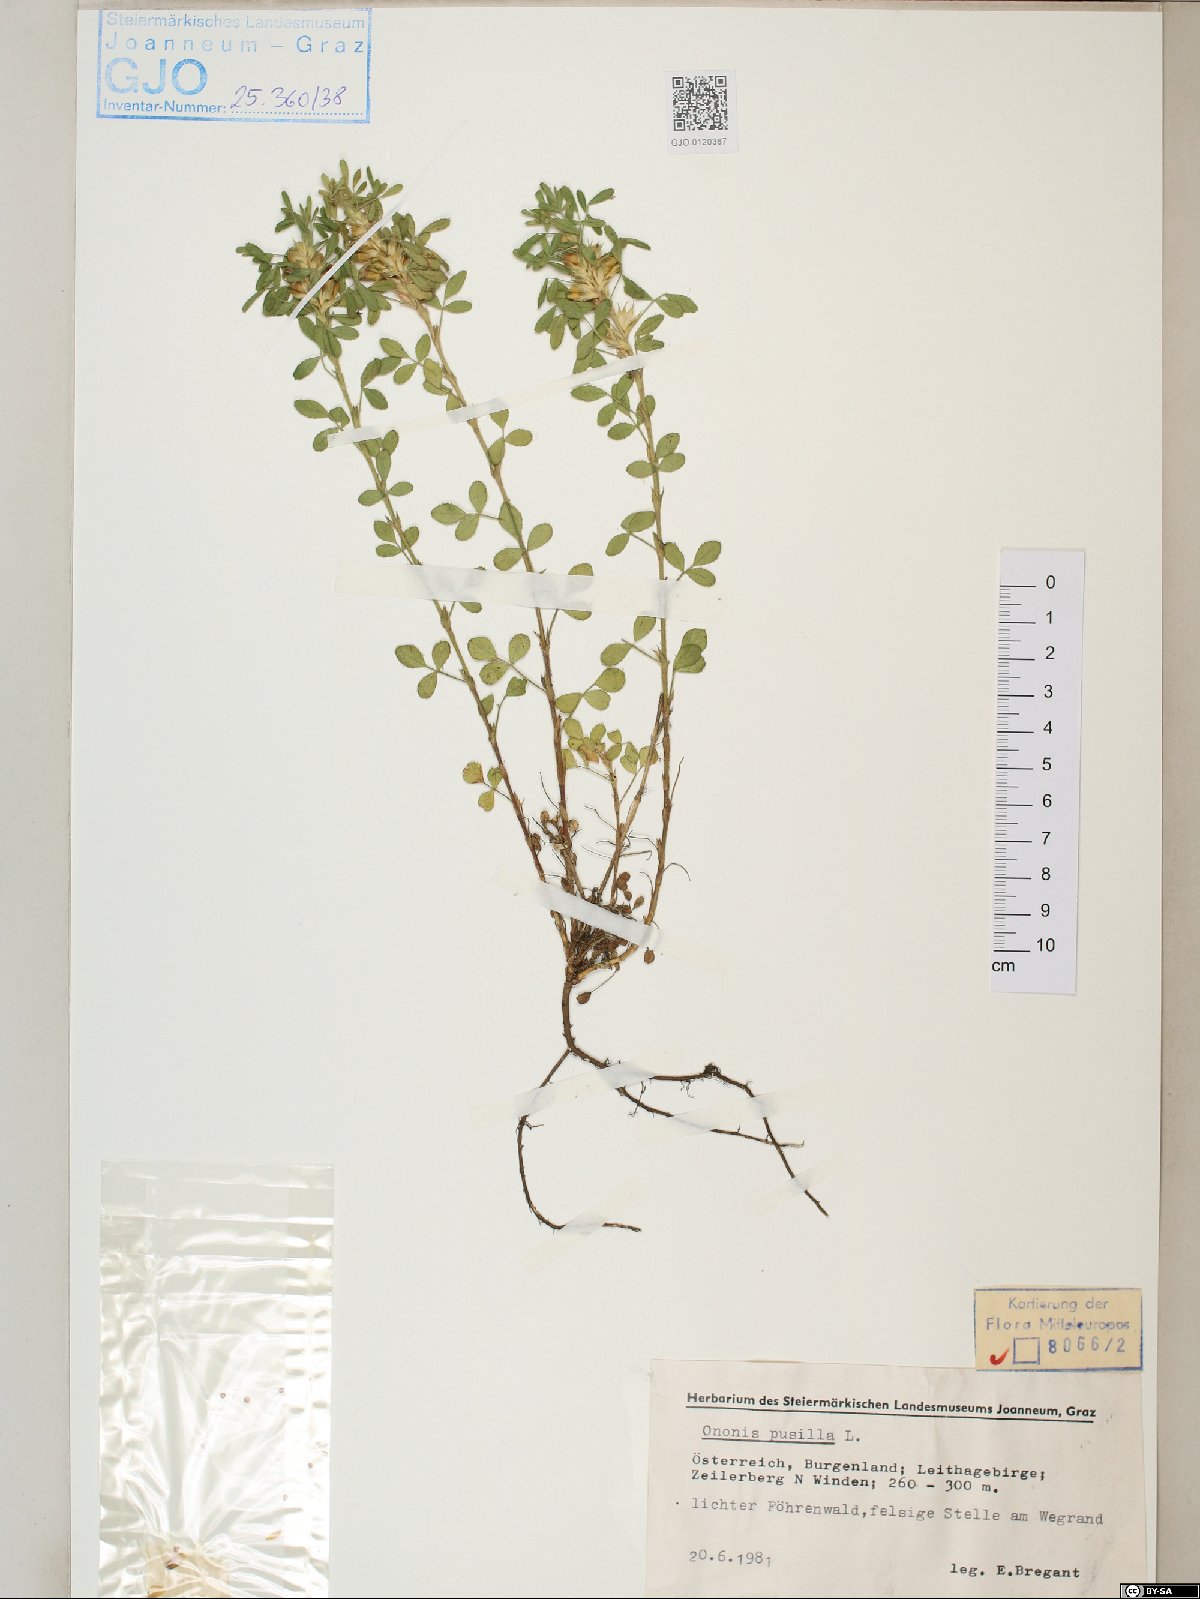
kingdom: Plantae
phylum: Tracheophyta
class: Magnoliopsida
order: Fabales
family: Fabaceae
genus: Ononis
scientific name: Ononis pusilla
